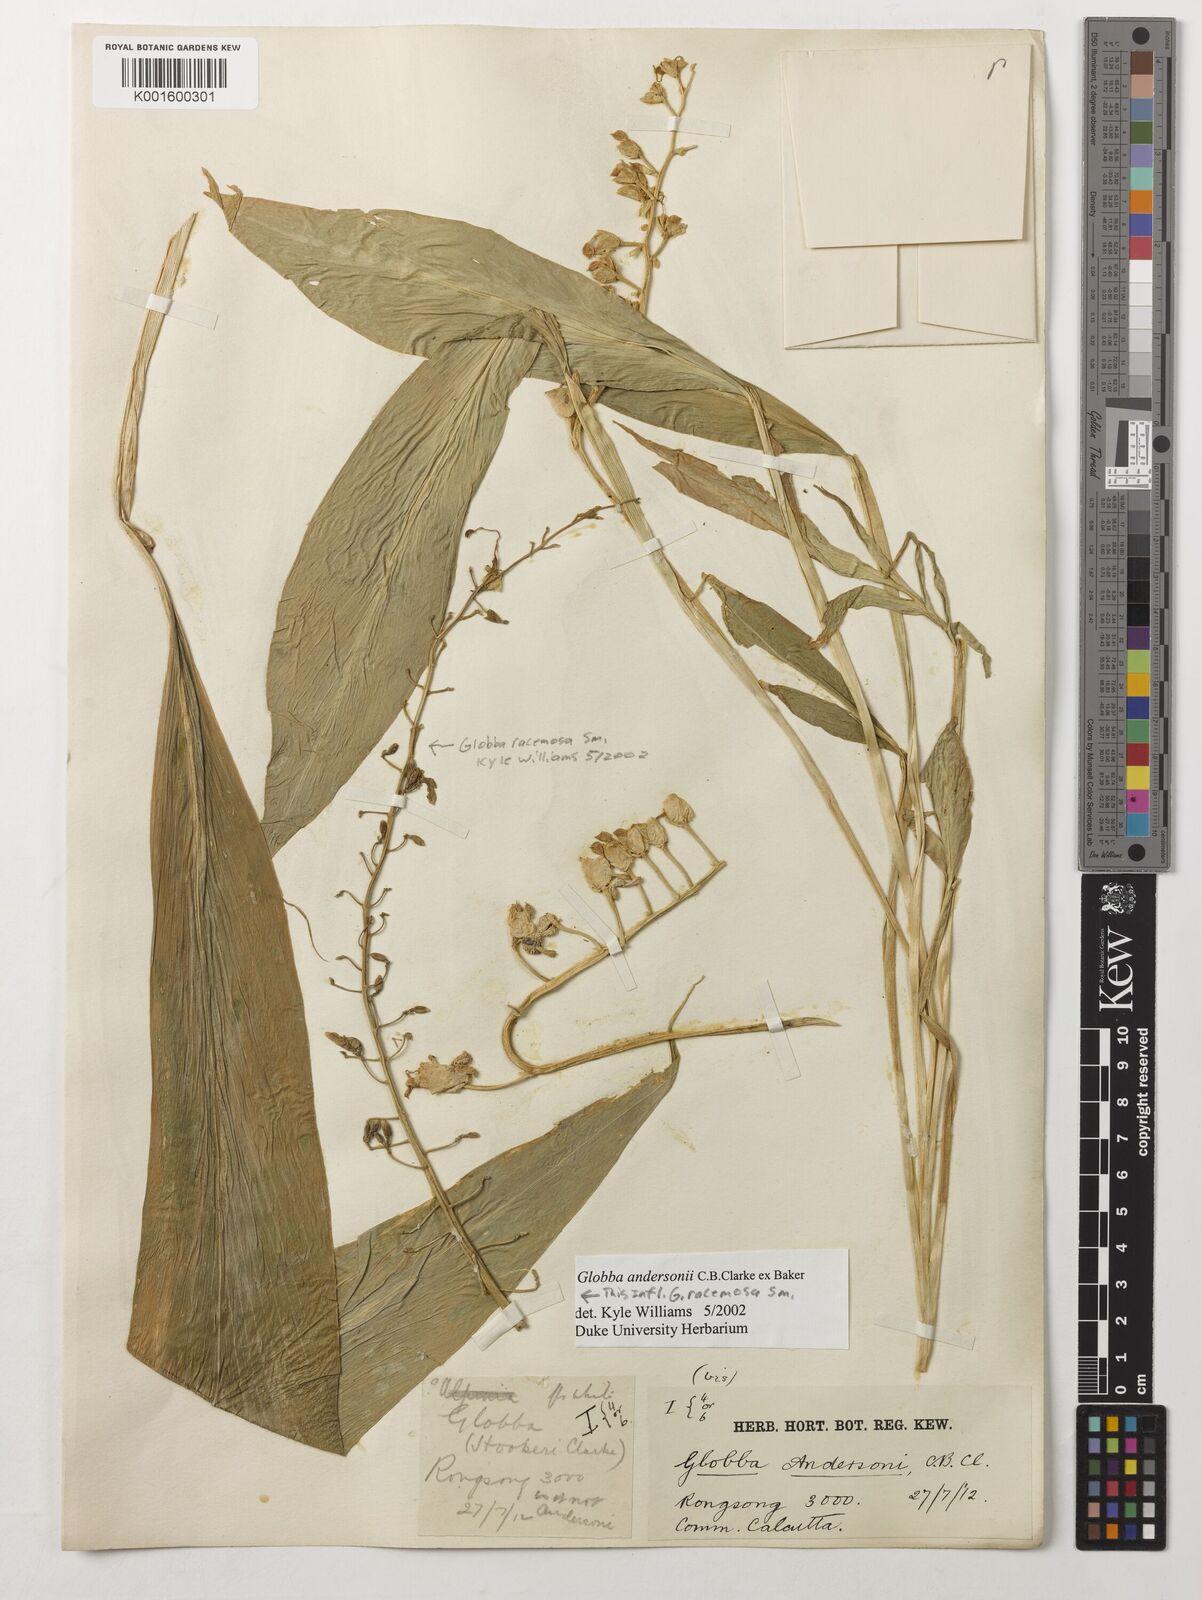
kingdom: Plantae
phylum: Tracheophyta
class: Liliopsida
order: Zingiberales
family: Zingiberaceae
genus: Globba
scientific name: Globba andersonii
